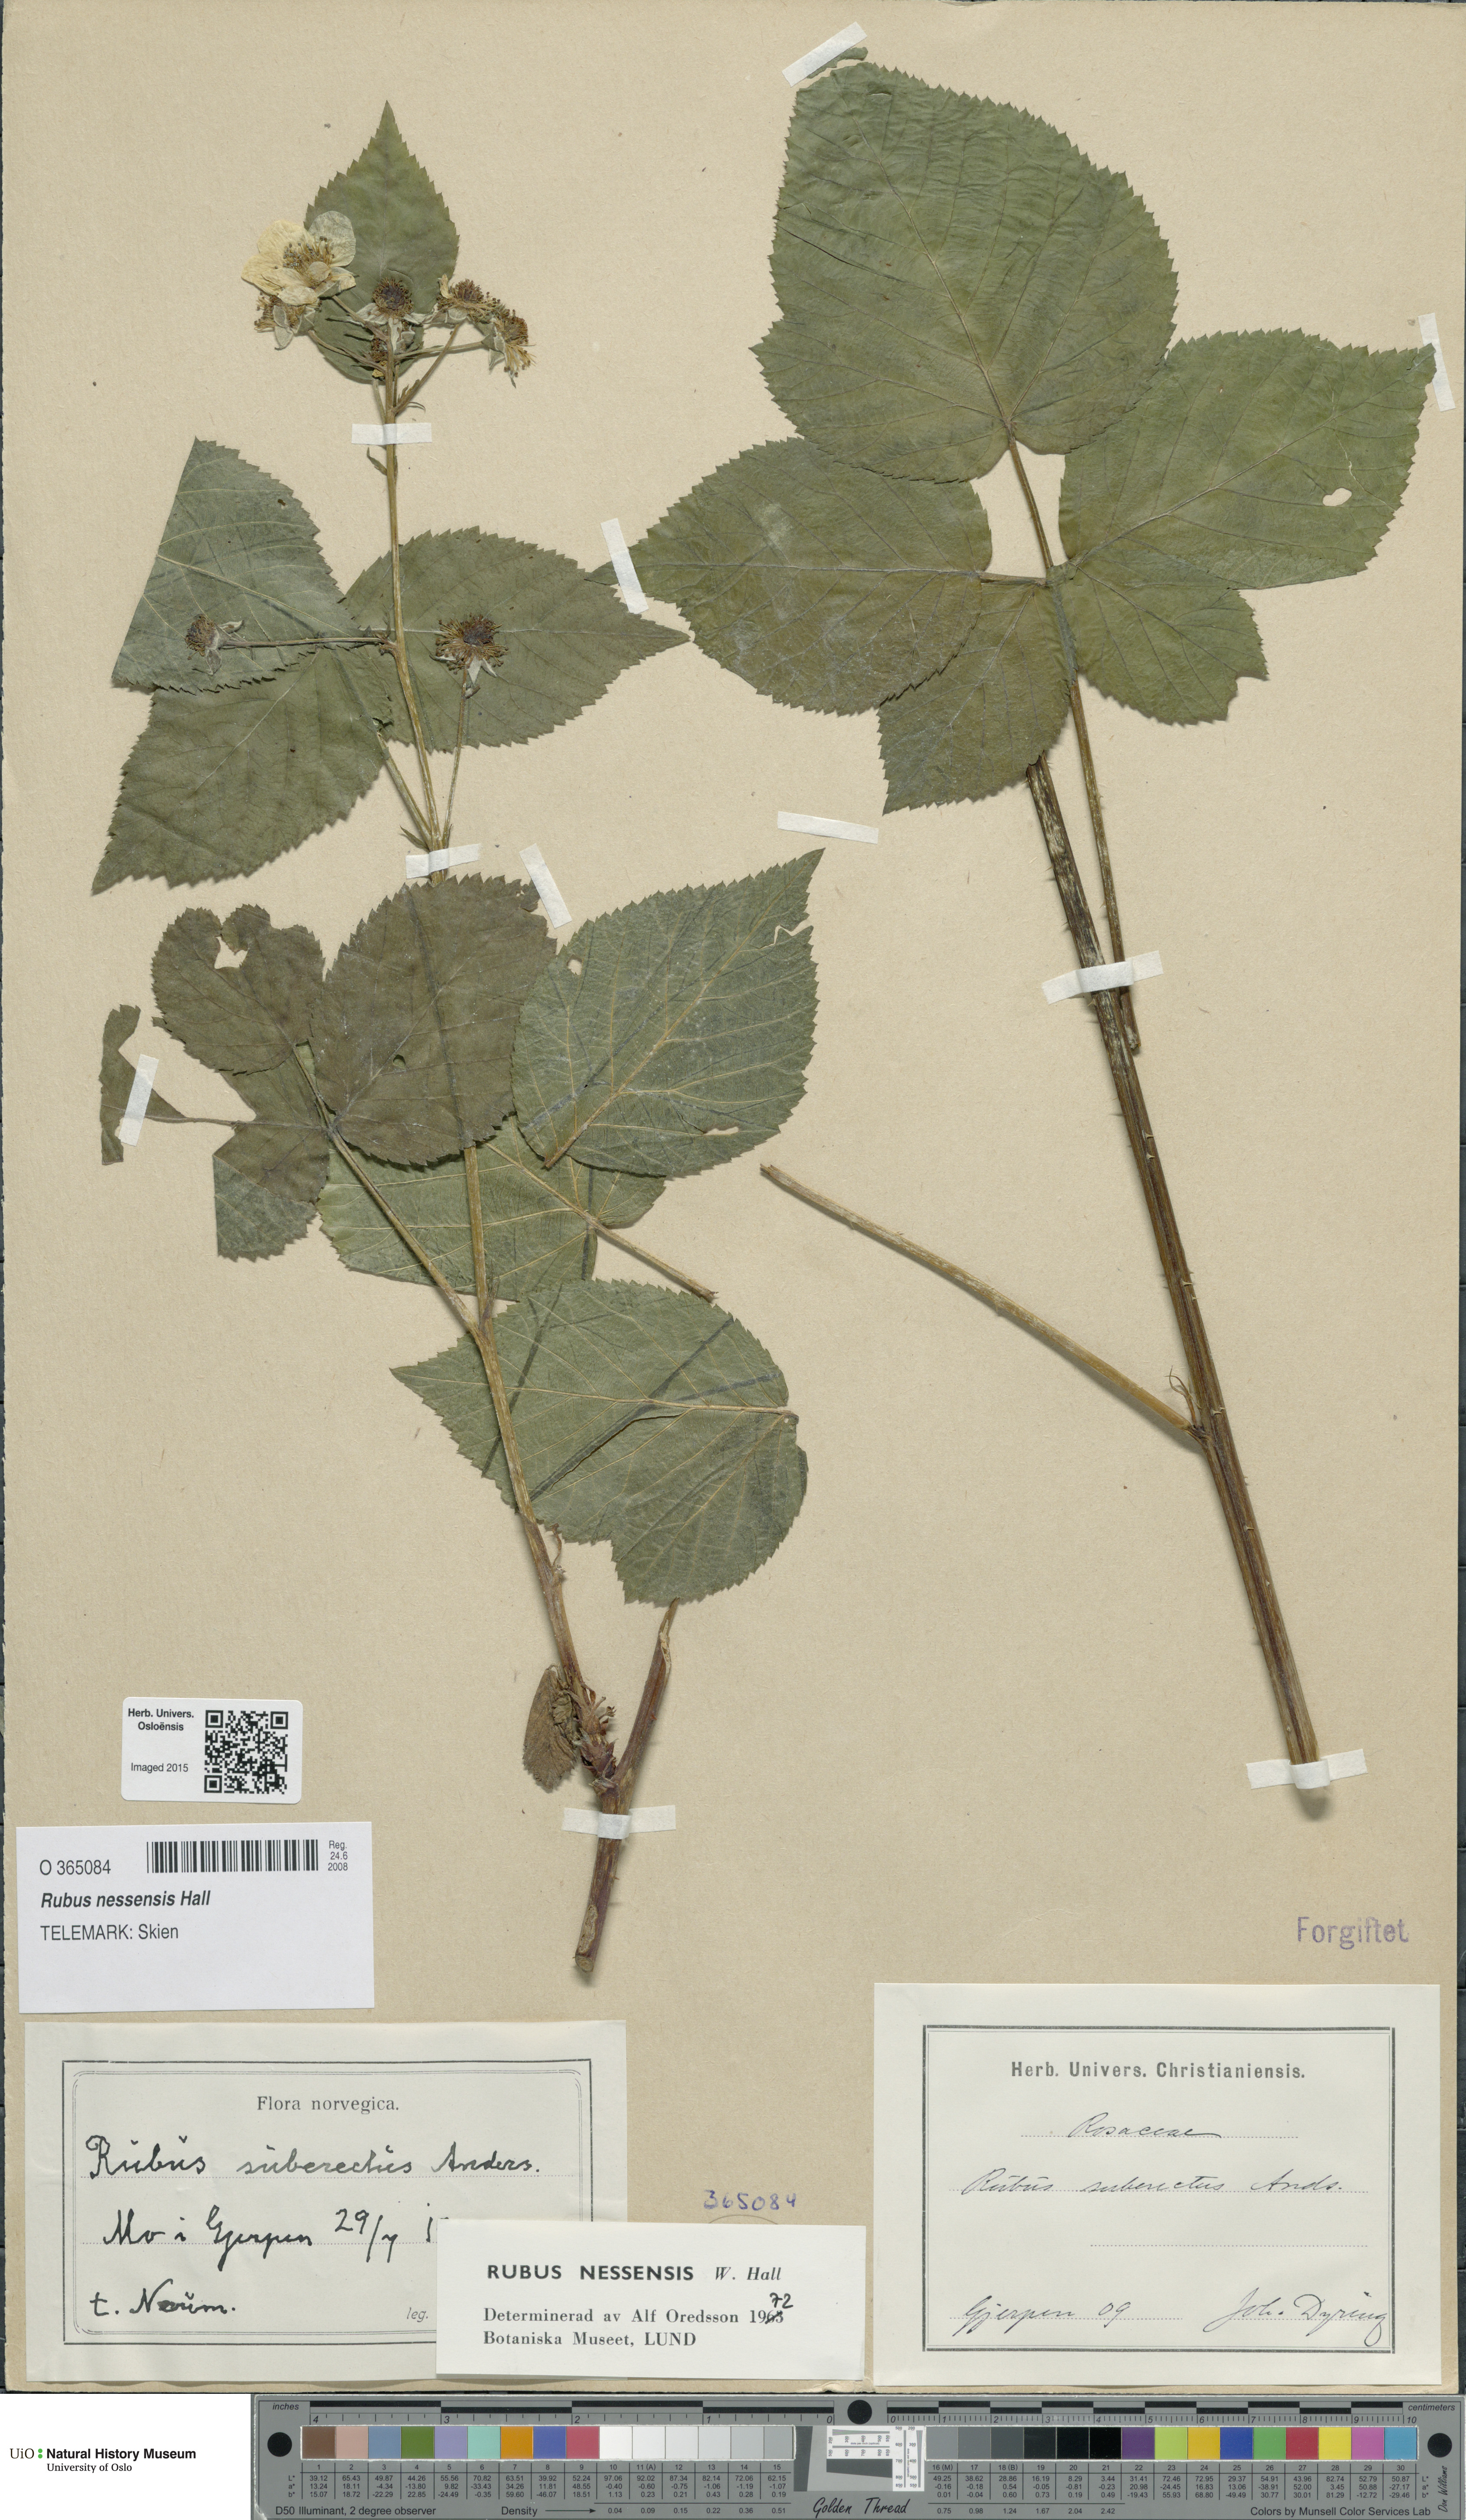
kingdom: Plantae
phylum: Tracheophyta
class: Magnoliopsida
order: Rosales
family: Rosaceae
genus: Rubus
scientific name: Rubus polonicus
